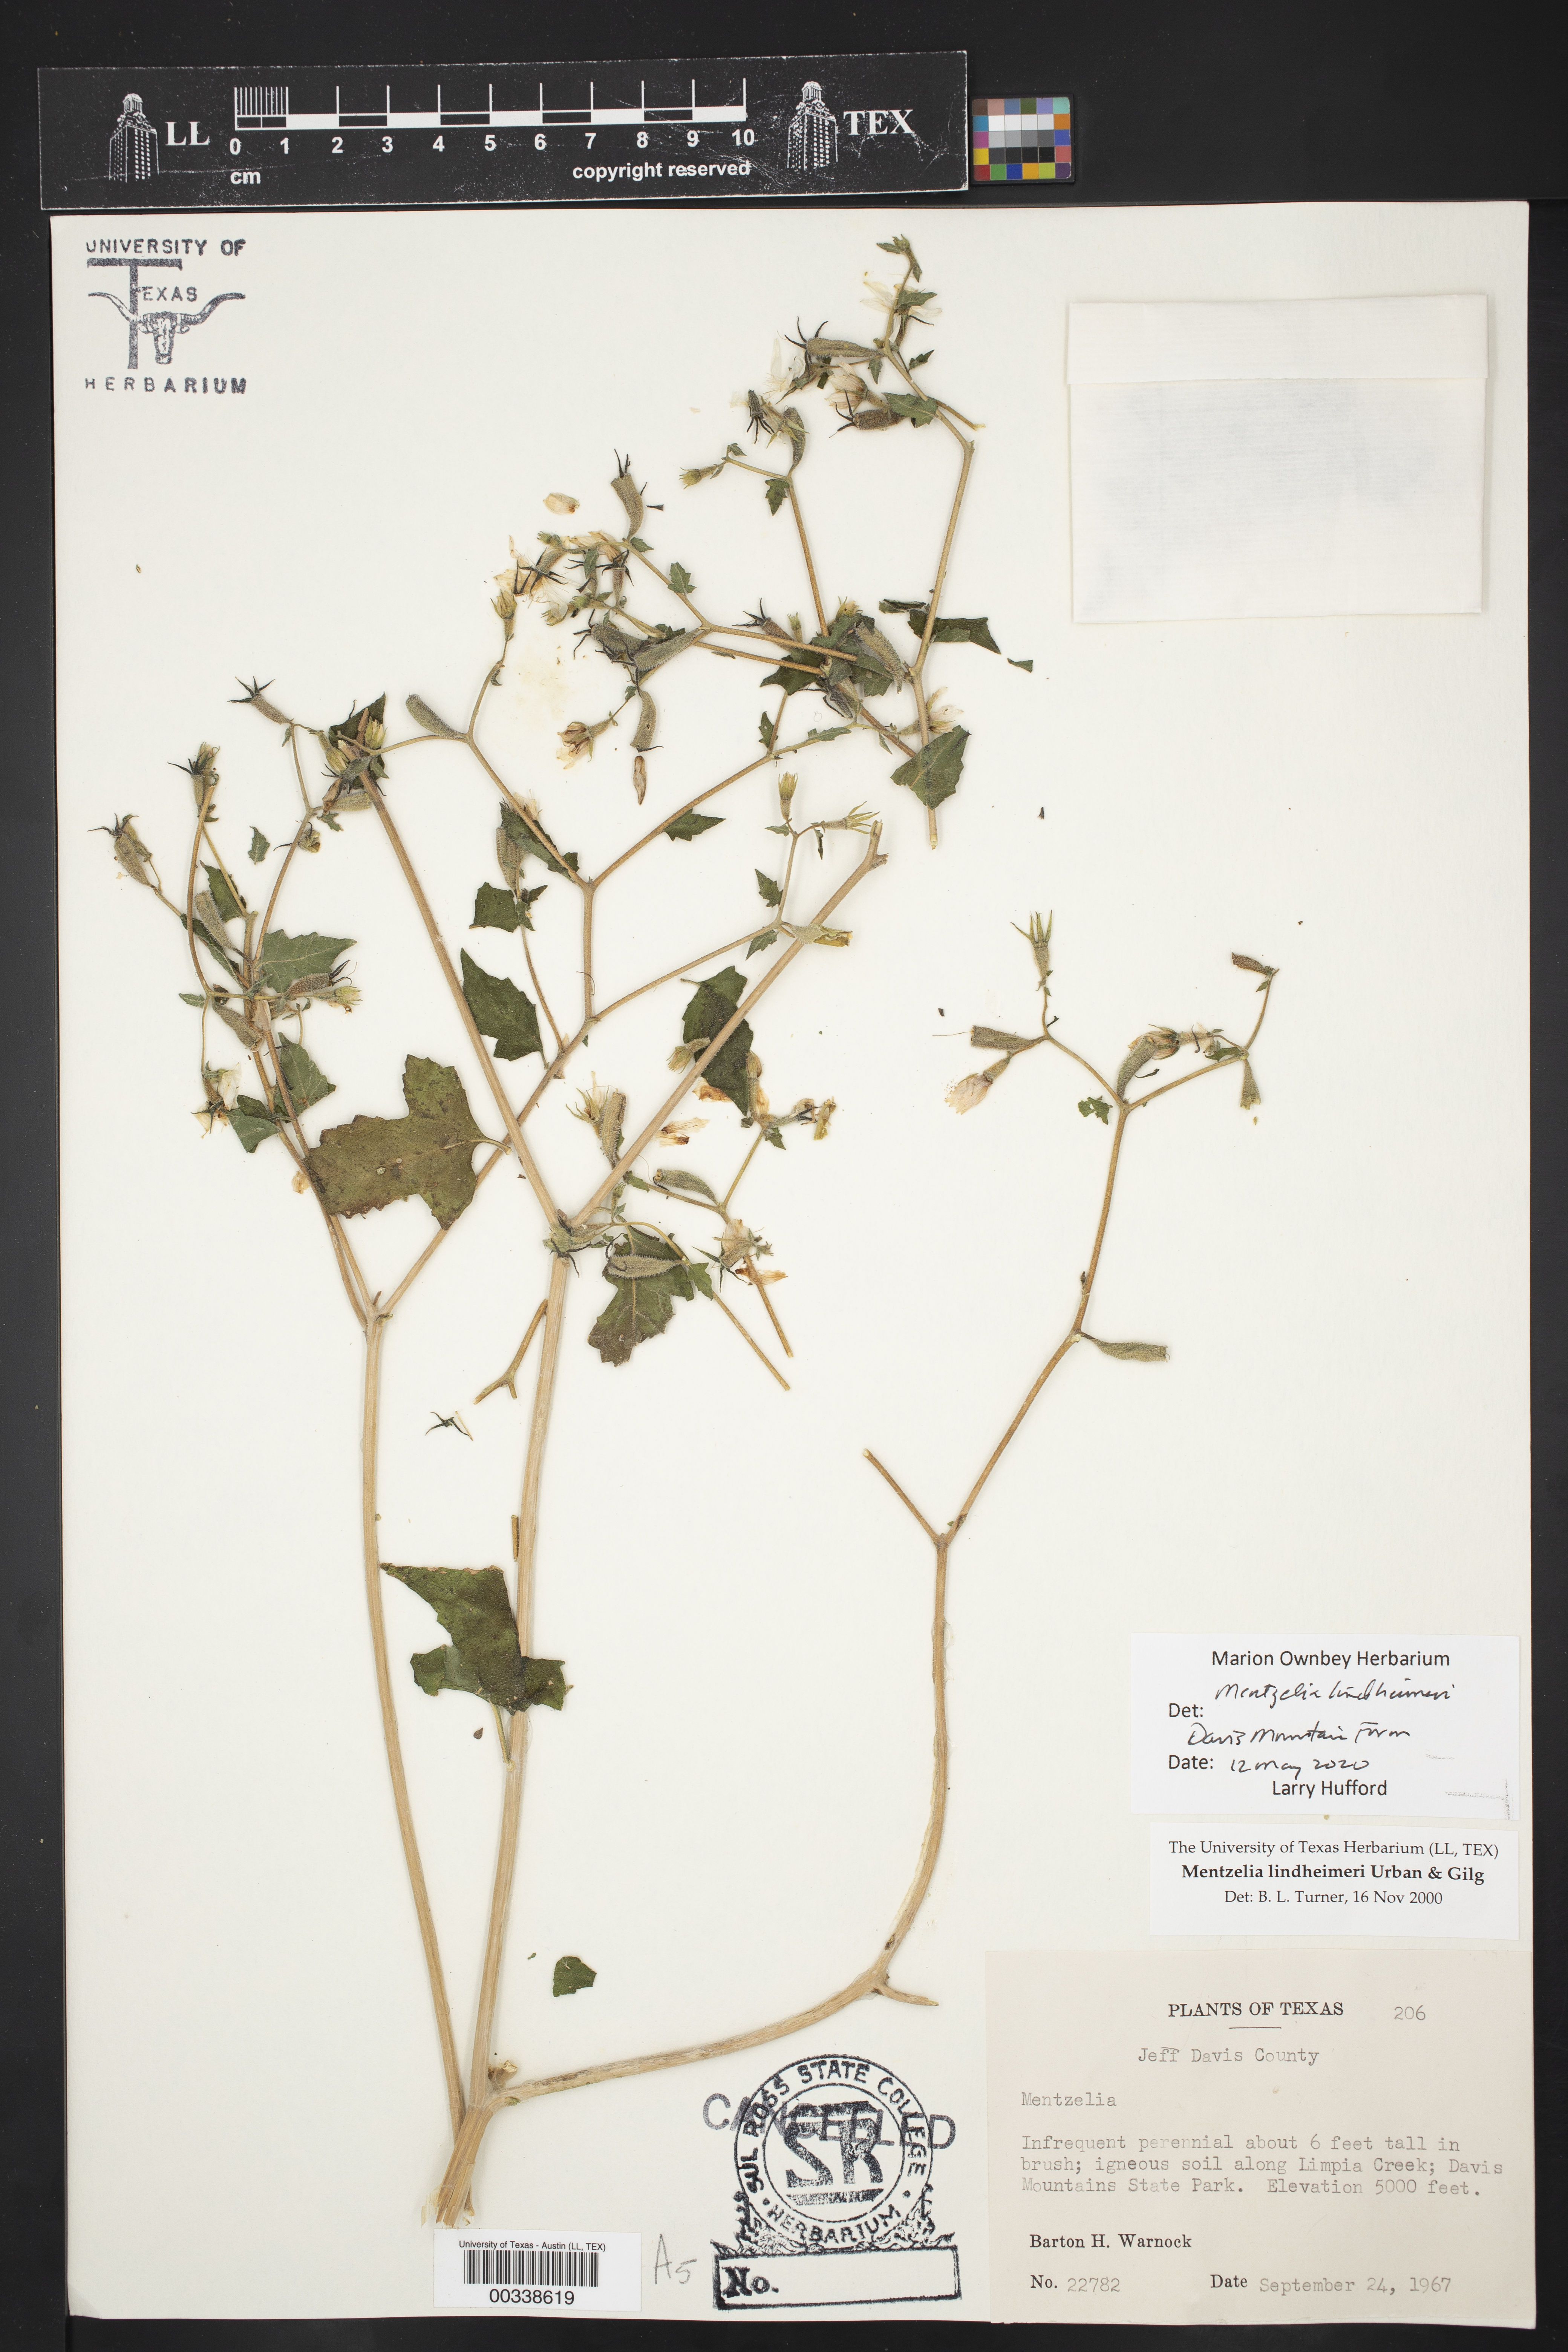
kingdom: Plantae
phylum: Tracheophyta
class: Magnoliopsida
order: Cornales
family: Loasaceae
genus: Mentzelia
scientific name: Mentzelia lindheimeri
